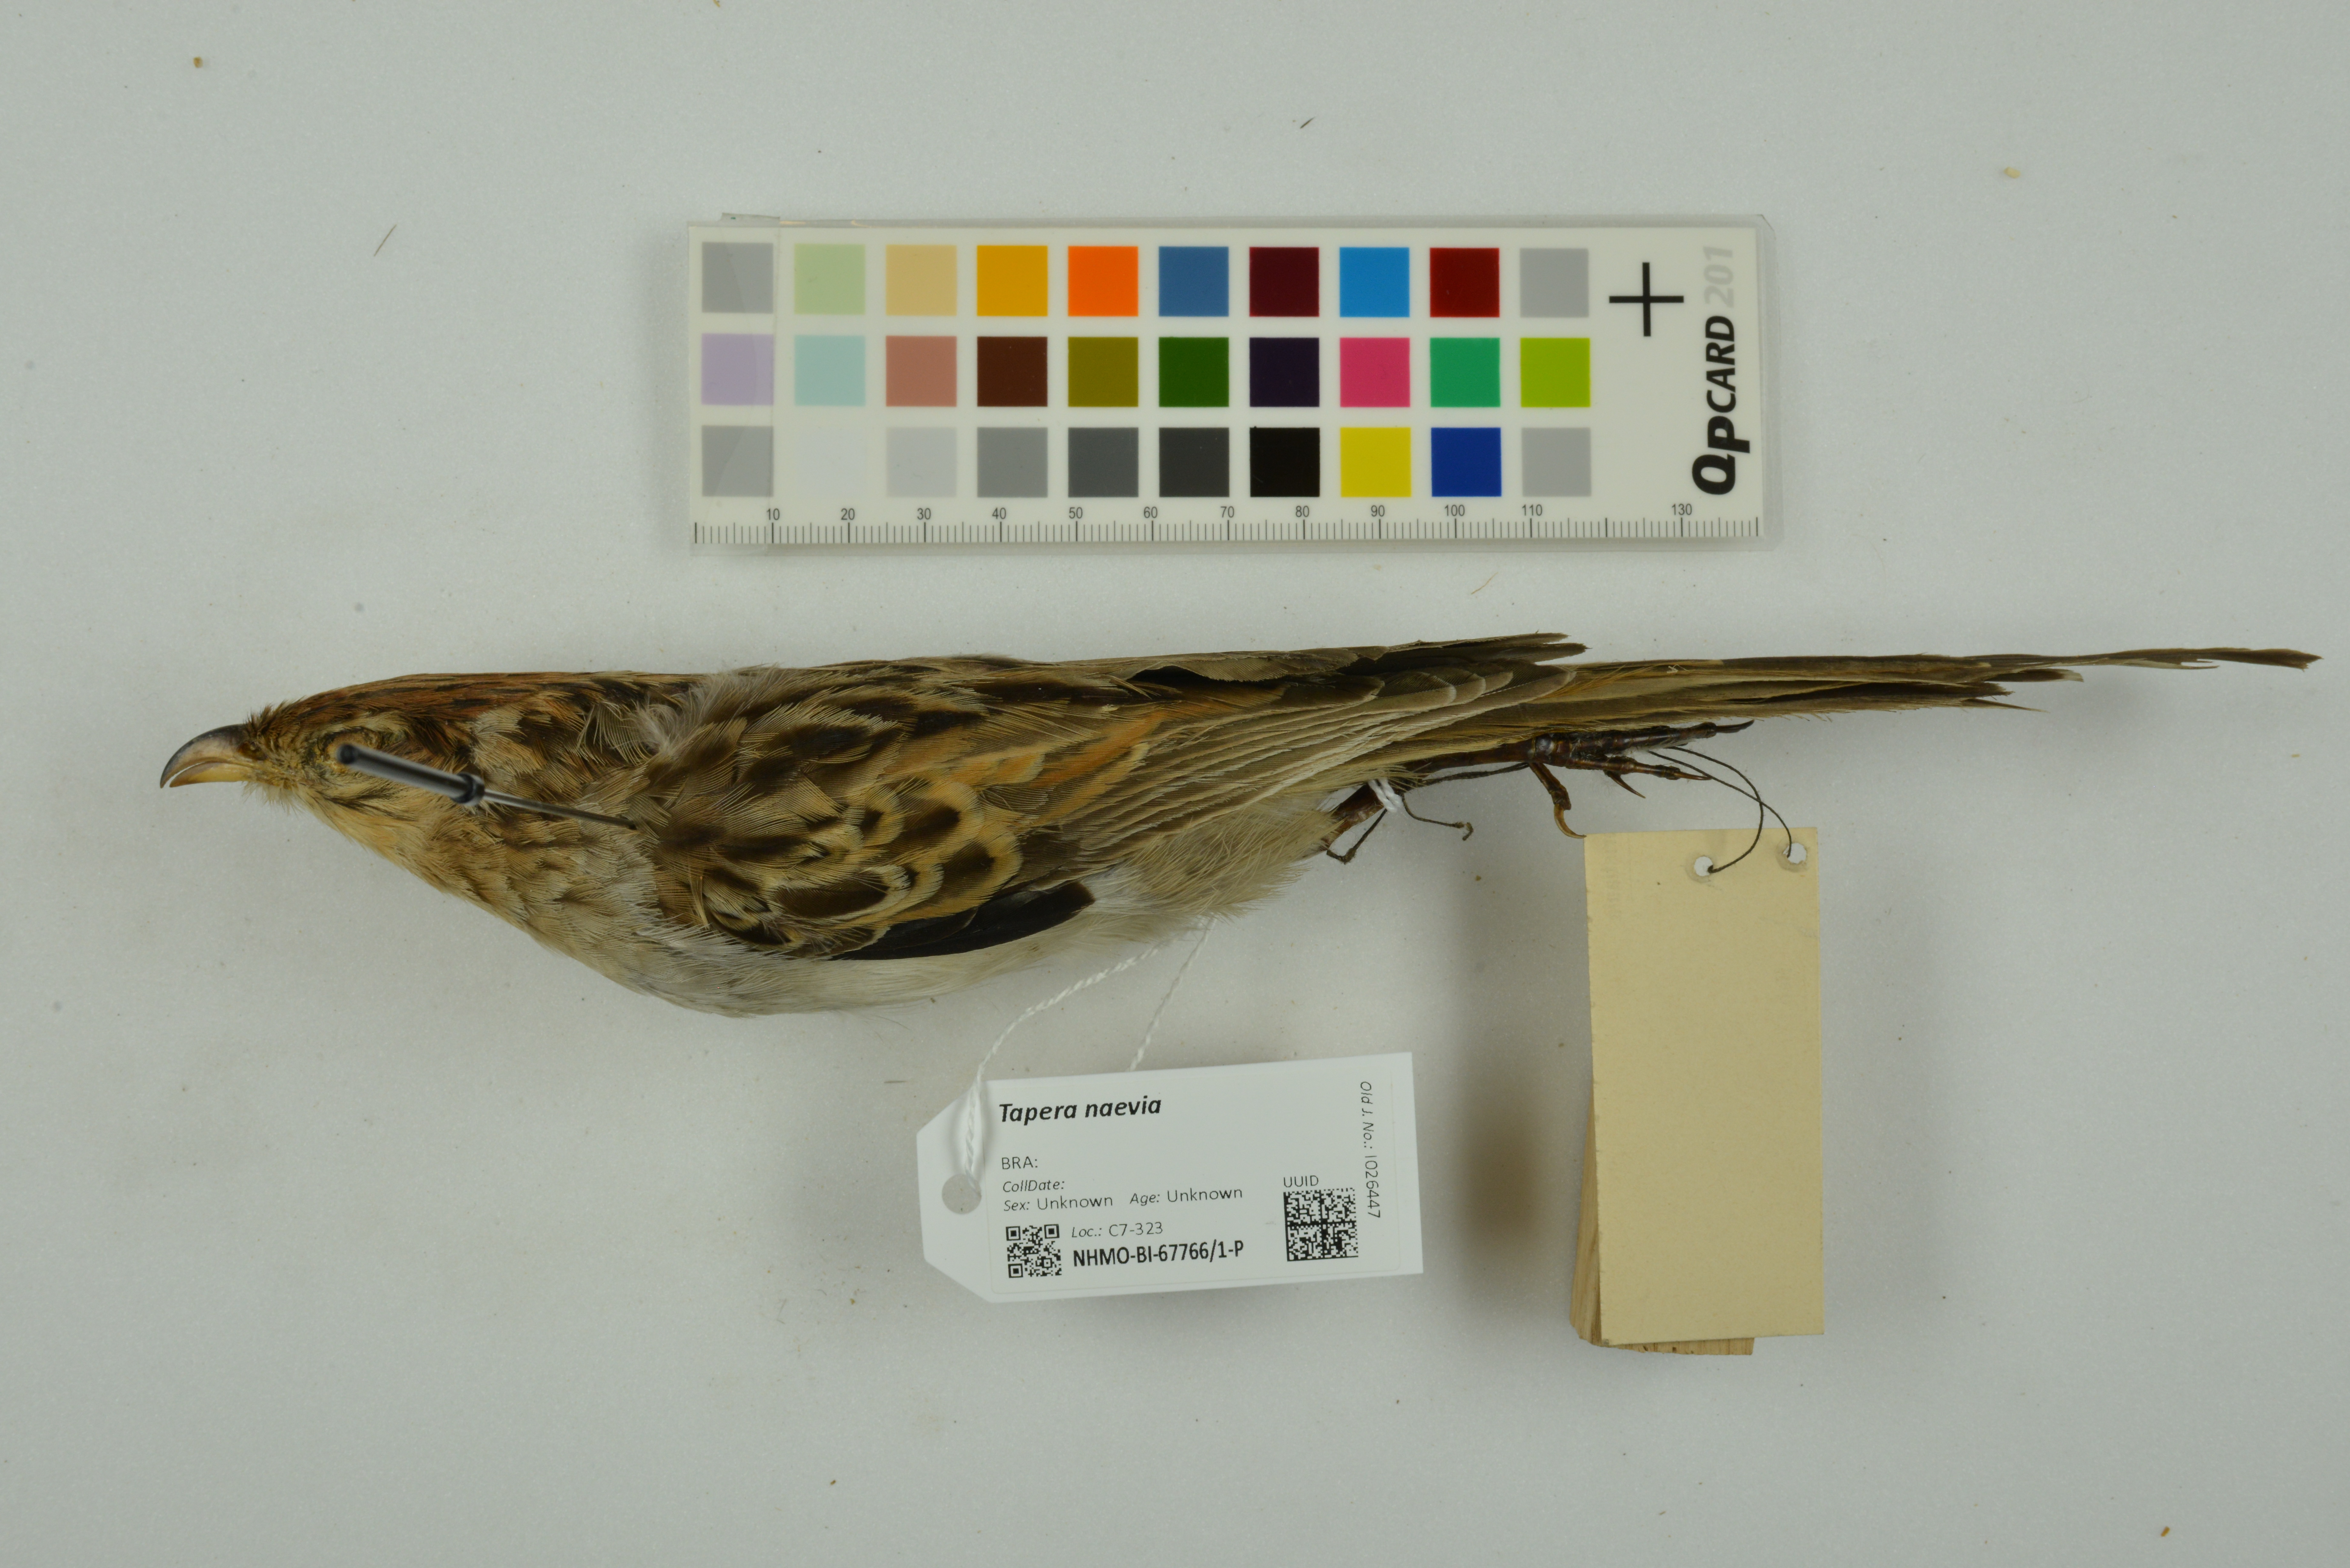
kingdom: Animalia
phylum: Chordata
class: Aves
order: Cuculiformes
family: Cuculidae
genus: Tapera
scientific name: Tapera naevia
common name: Striped cuckoo
